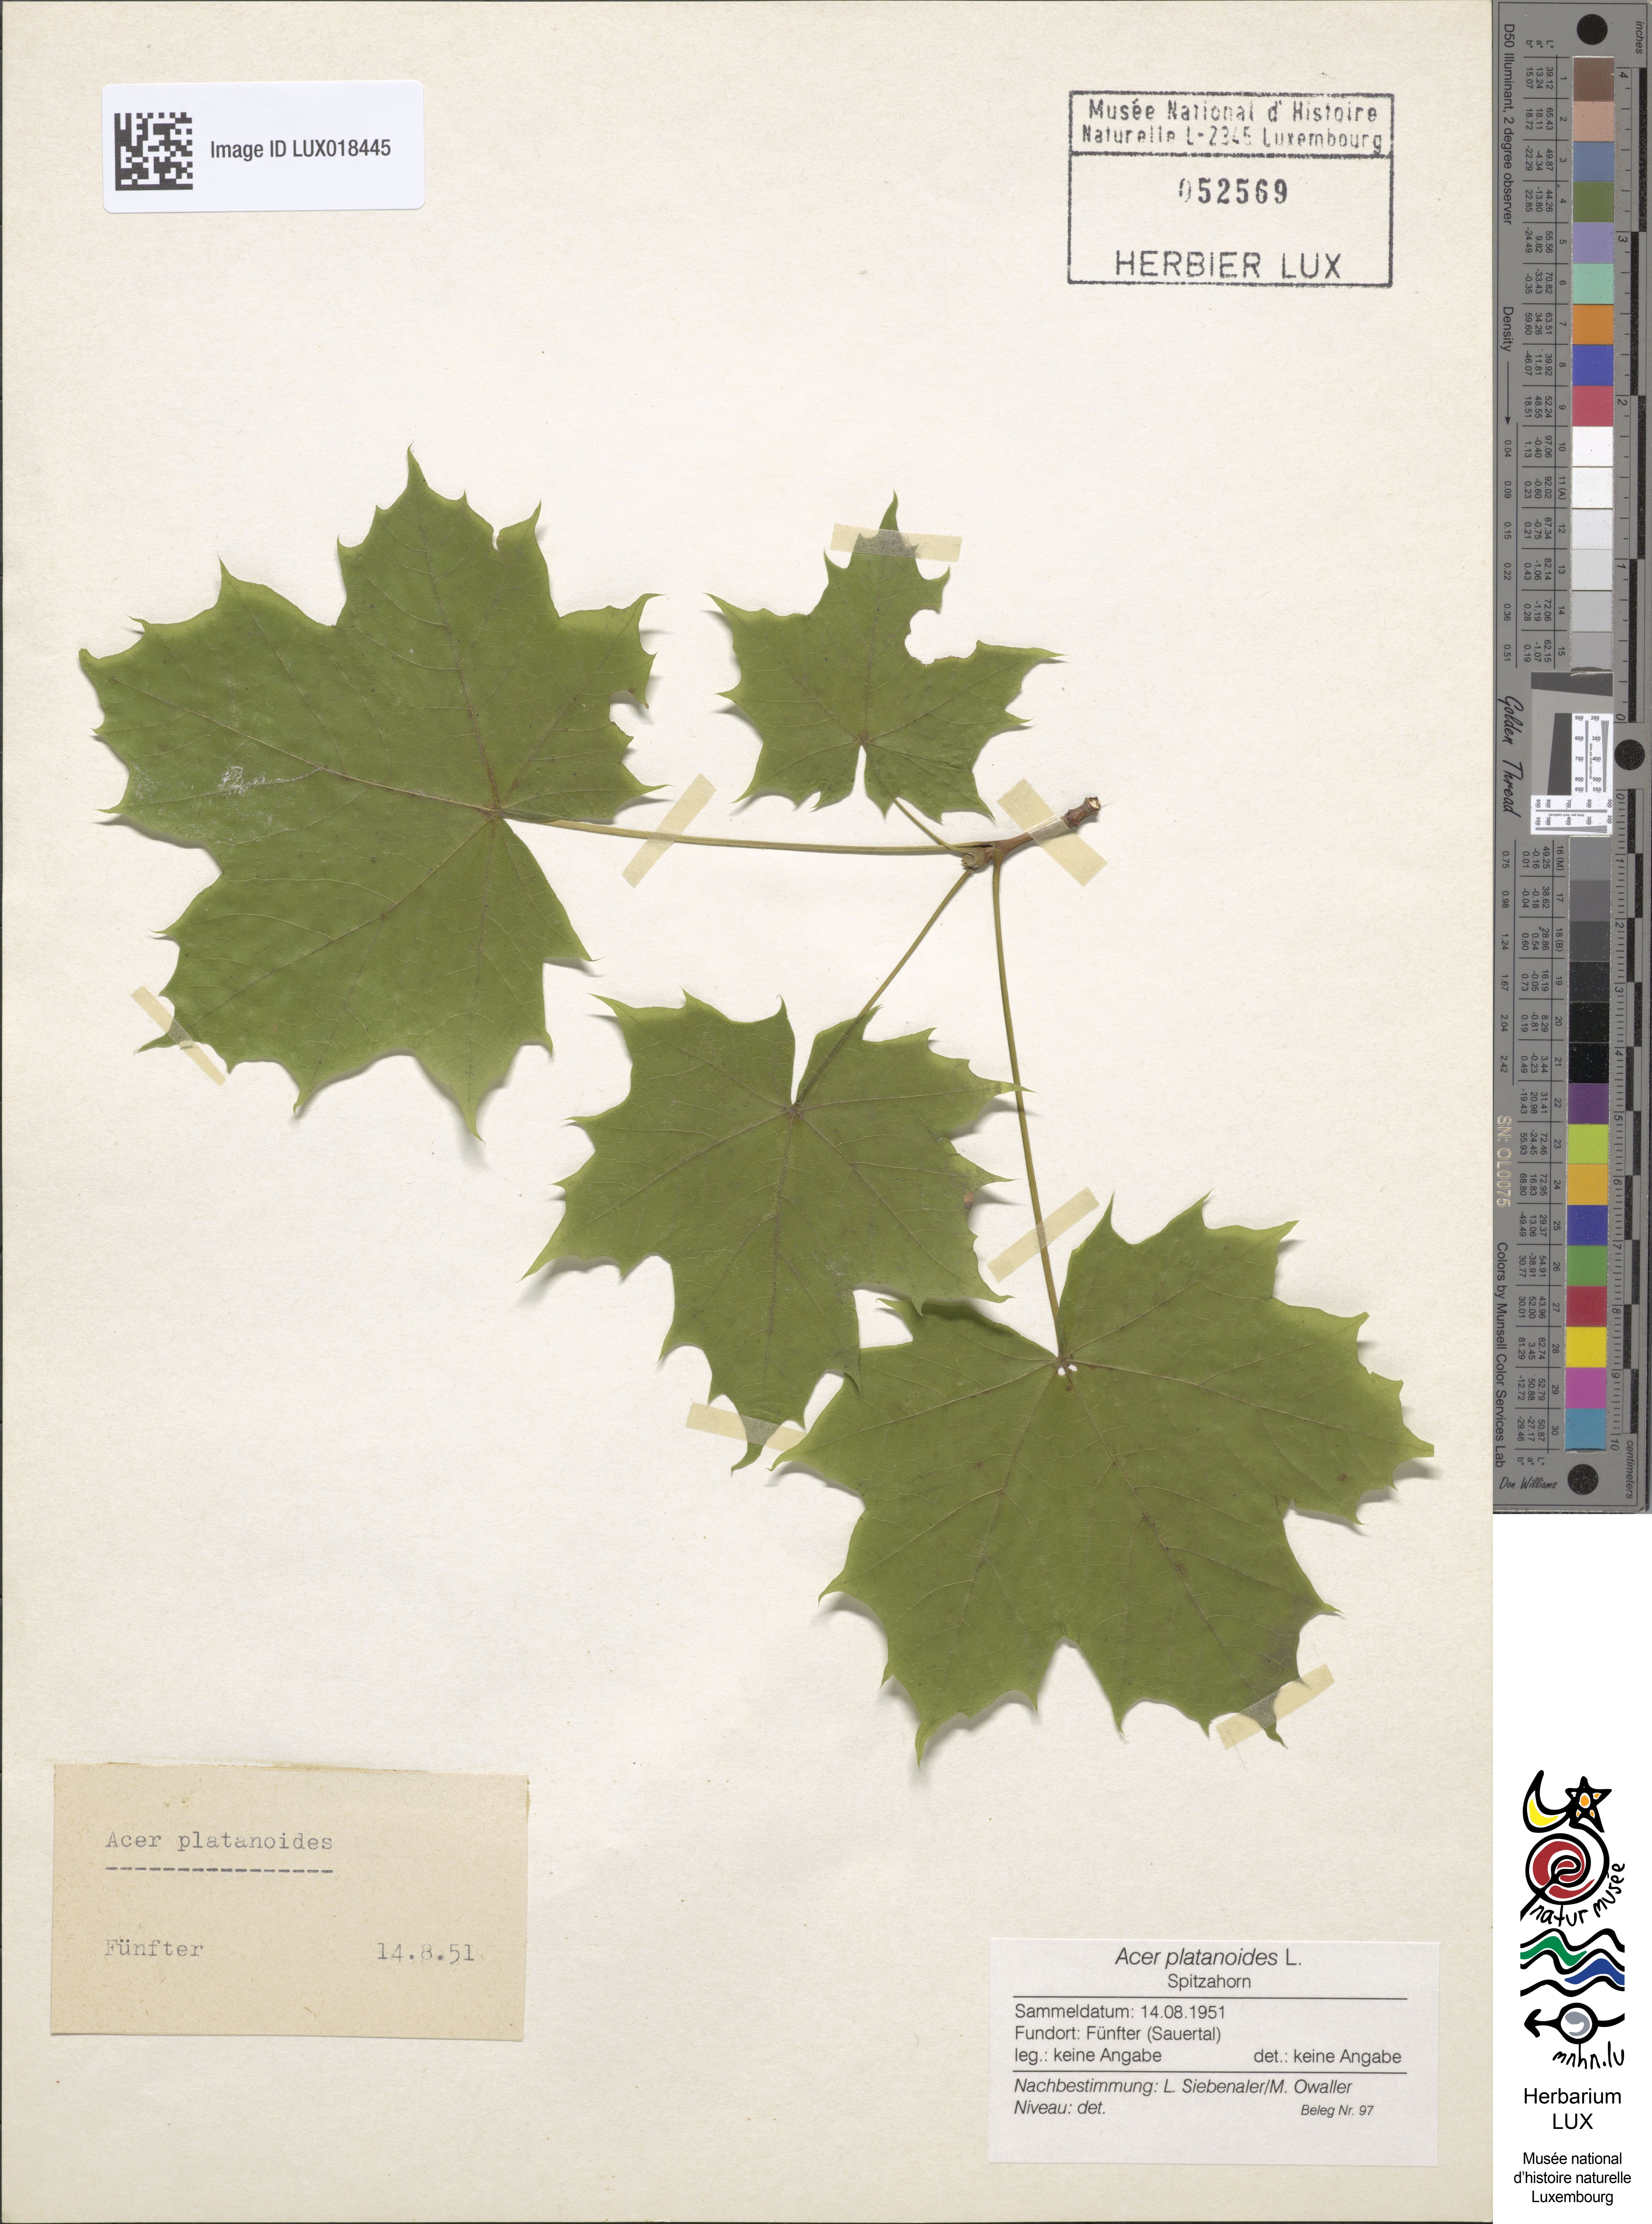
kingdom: Plantae
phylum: Tracheophyta
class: Magnoliopsida
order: Sapindales
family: Sapindaceae
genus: Acer
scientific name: Acer platanoides
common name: Norway maple
